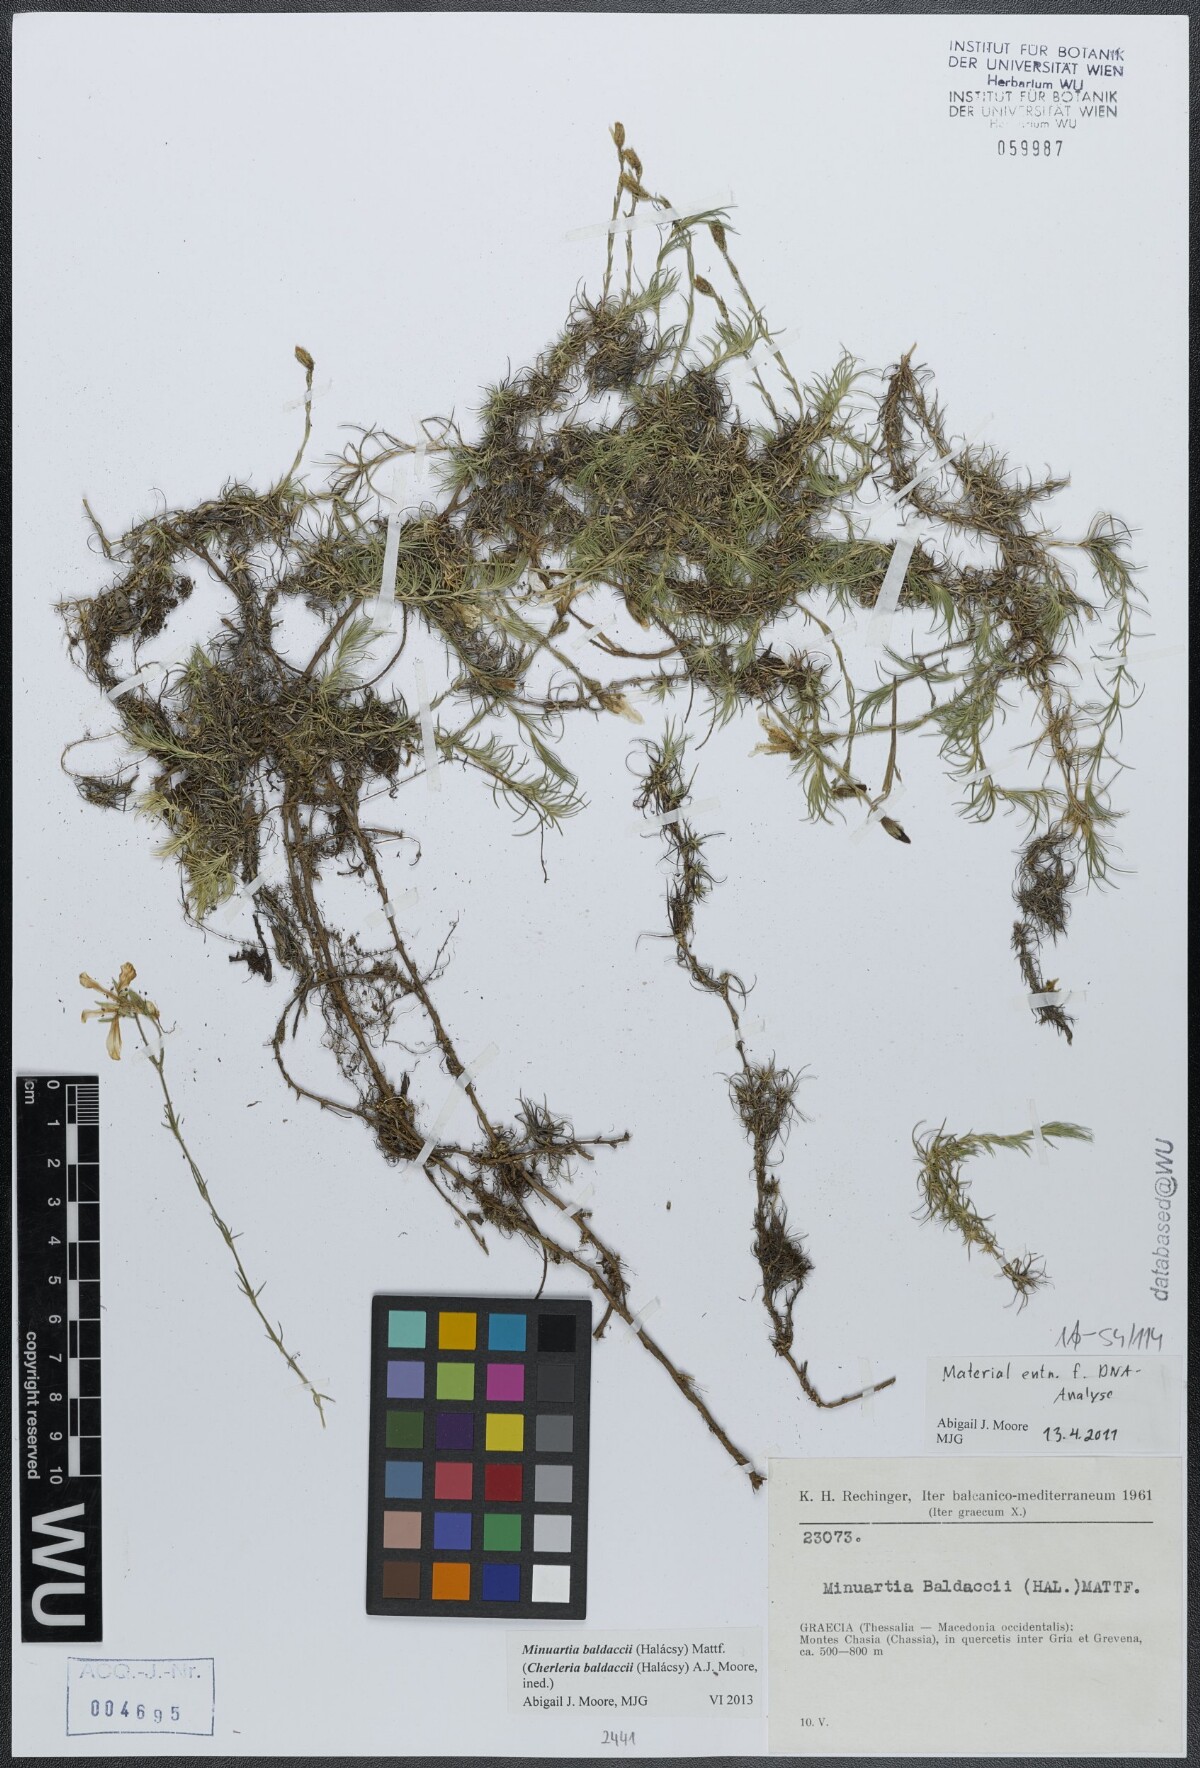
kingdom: Plantae
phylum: Tracheophyta
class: Magnoliopsida
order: Caryophyllales
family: Caryophyllaceae
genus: Cherleria
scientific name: Cherleria baldaccii
